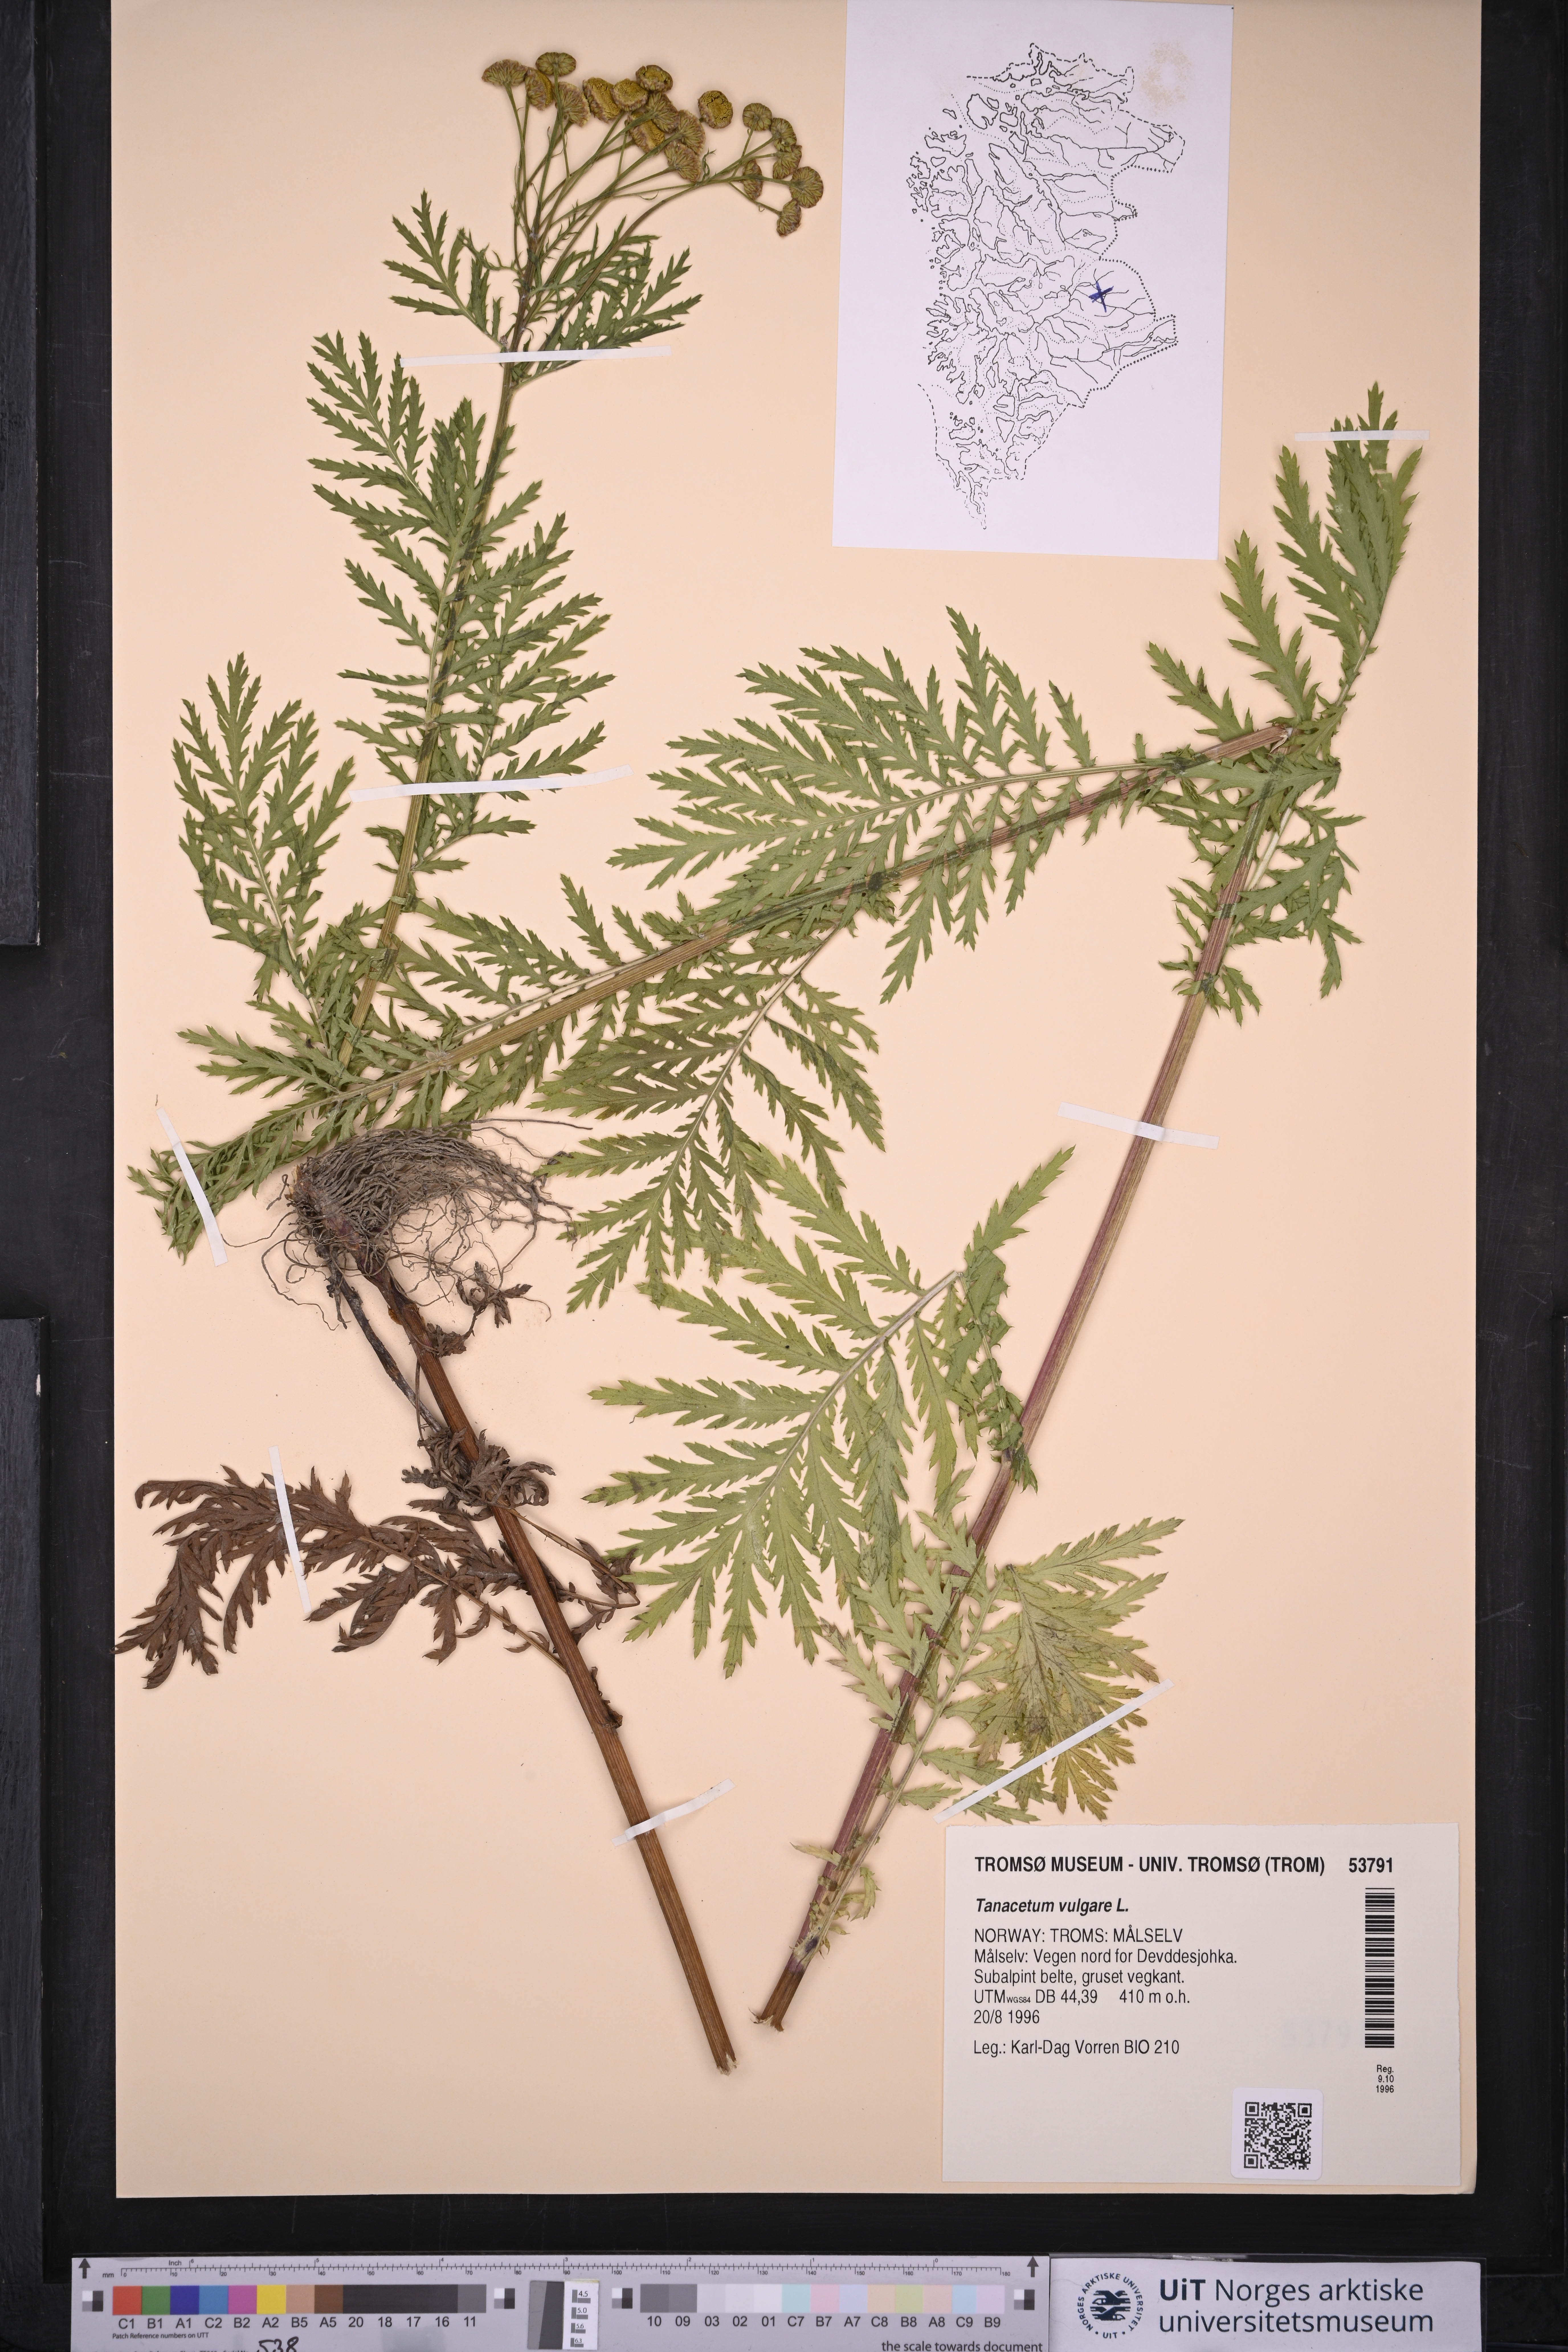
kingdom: Plantae
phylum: Tracheophyta
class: Magnoliopsida
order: Asterales
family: Asteraceae
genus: Tanacetum
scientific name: Tanacetum vulgare
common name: Common tansy
